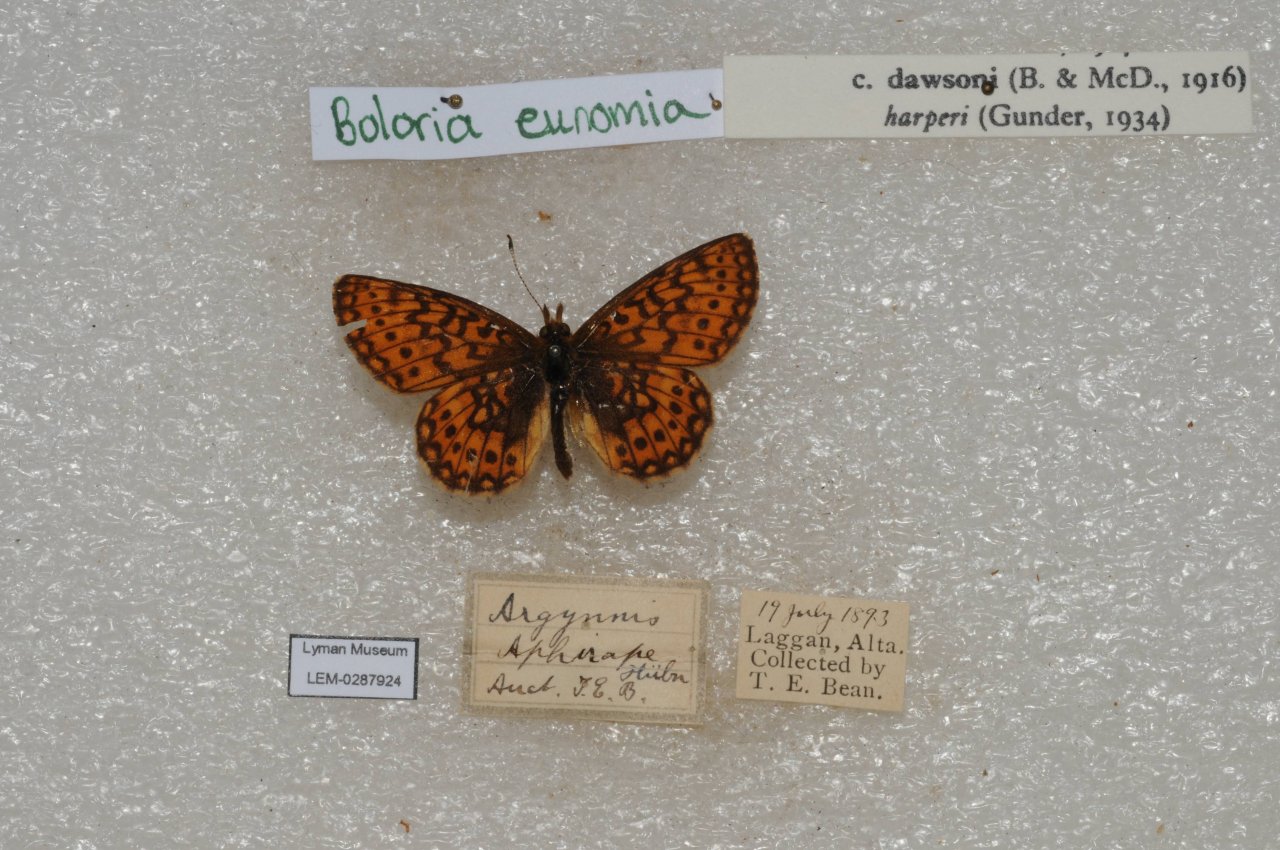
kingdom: Animalia
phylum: Arthropoda
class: Insecta
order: Lepidoptera
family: Nymphalidae
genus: Boloria
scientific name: Boloria eunomia
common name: Bog Fritillary
